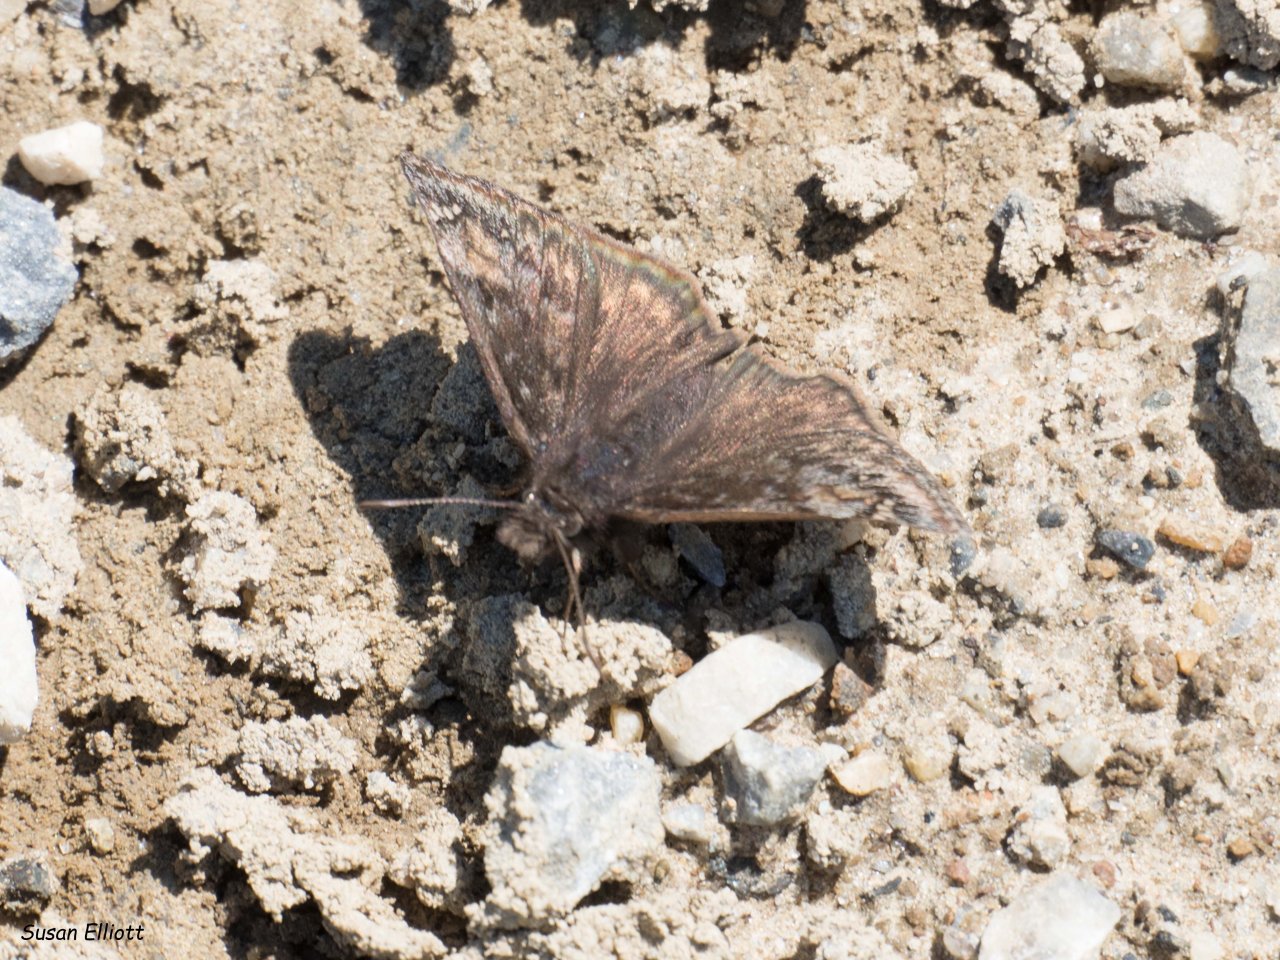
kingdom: Animalia
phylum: Arthropoda
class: Insecta
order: Lepidoptera
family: Hesperiidae
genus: Gesta
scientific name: Gesta
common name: Wild Indigo Duskywing
